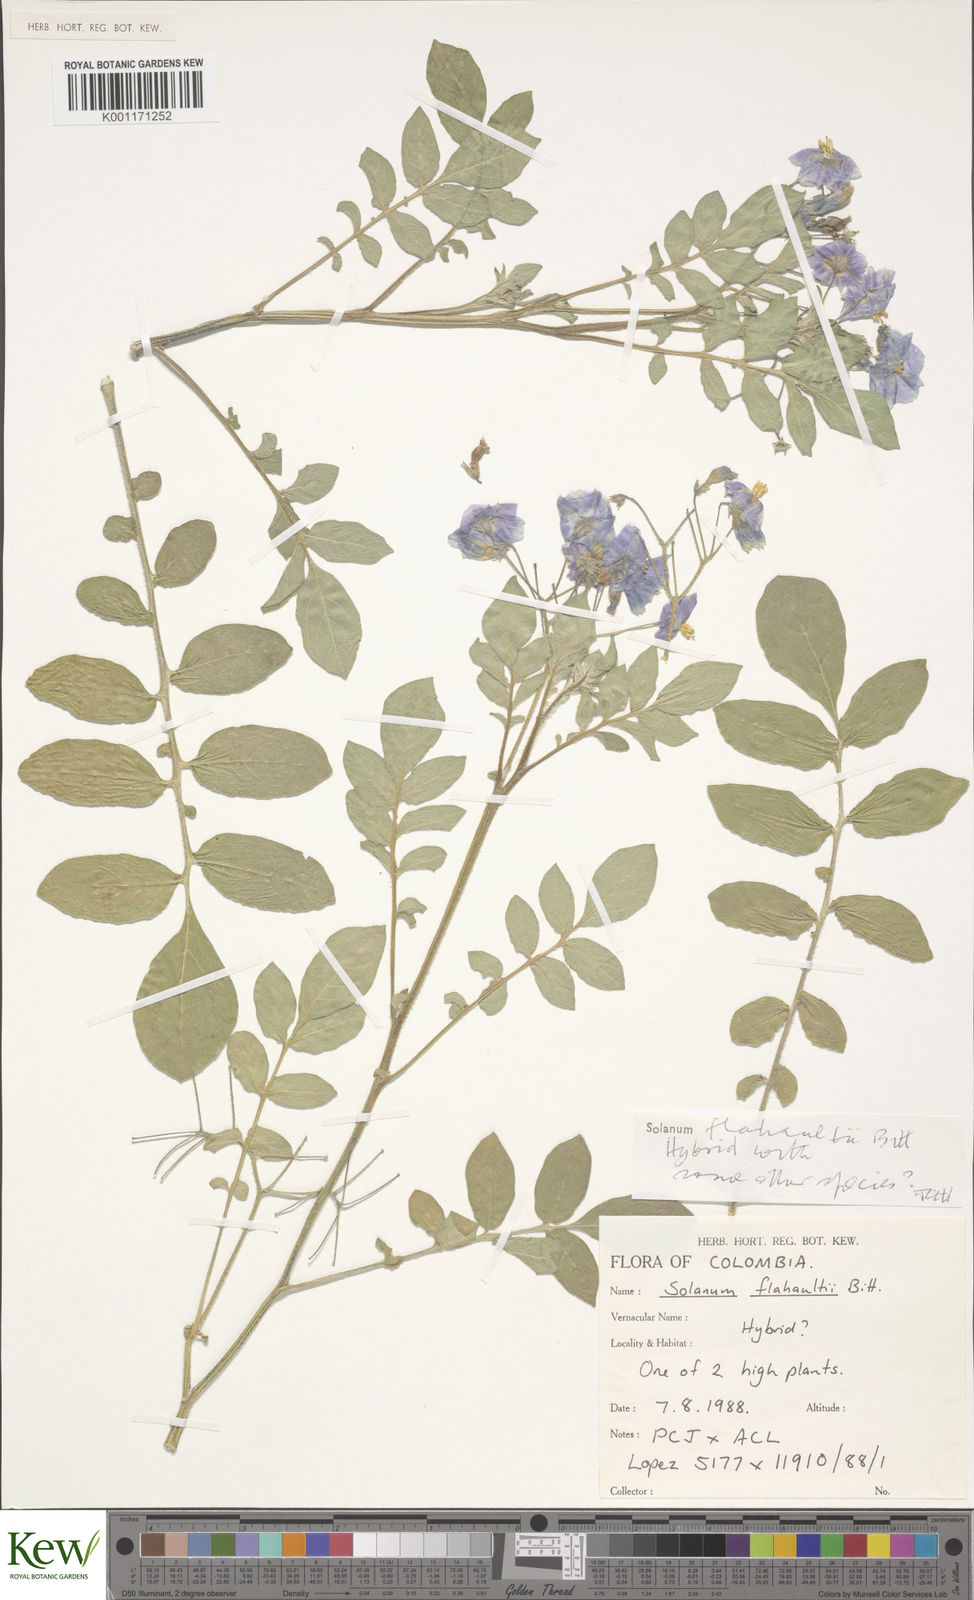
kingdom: Plantae
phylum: Tracheophyta
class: Magnoliopsida
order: Solanales
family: Solanaceae
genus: Solanum
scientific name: Solanum flahaultii
